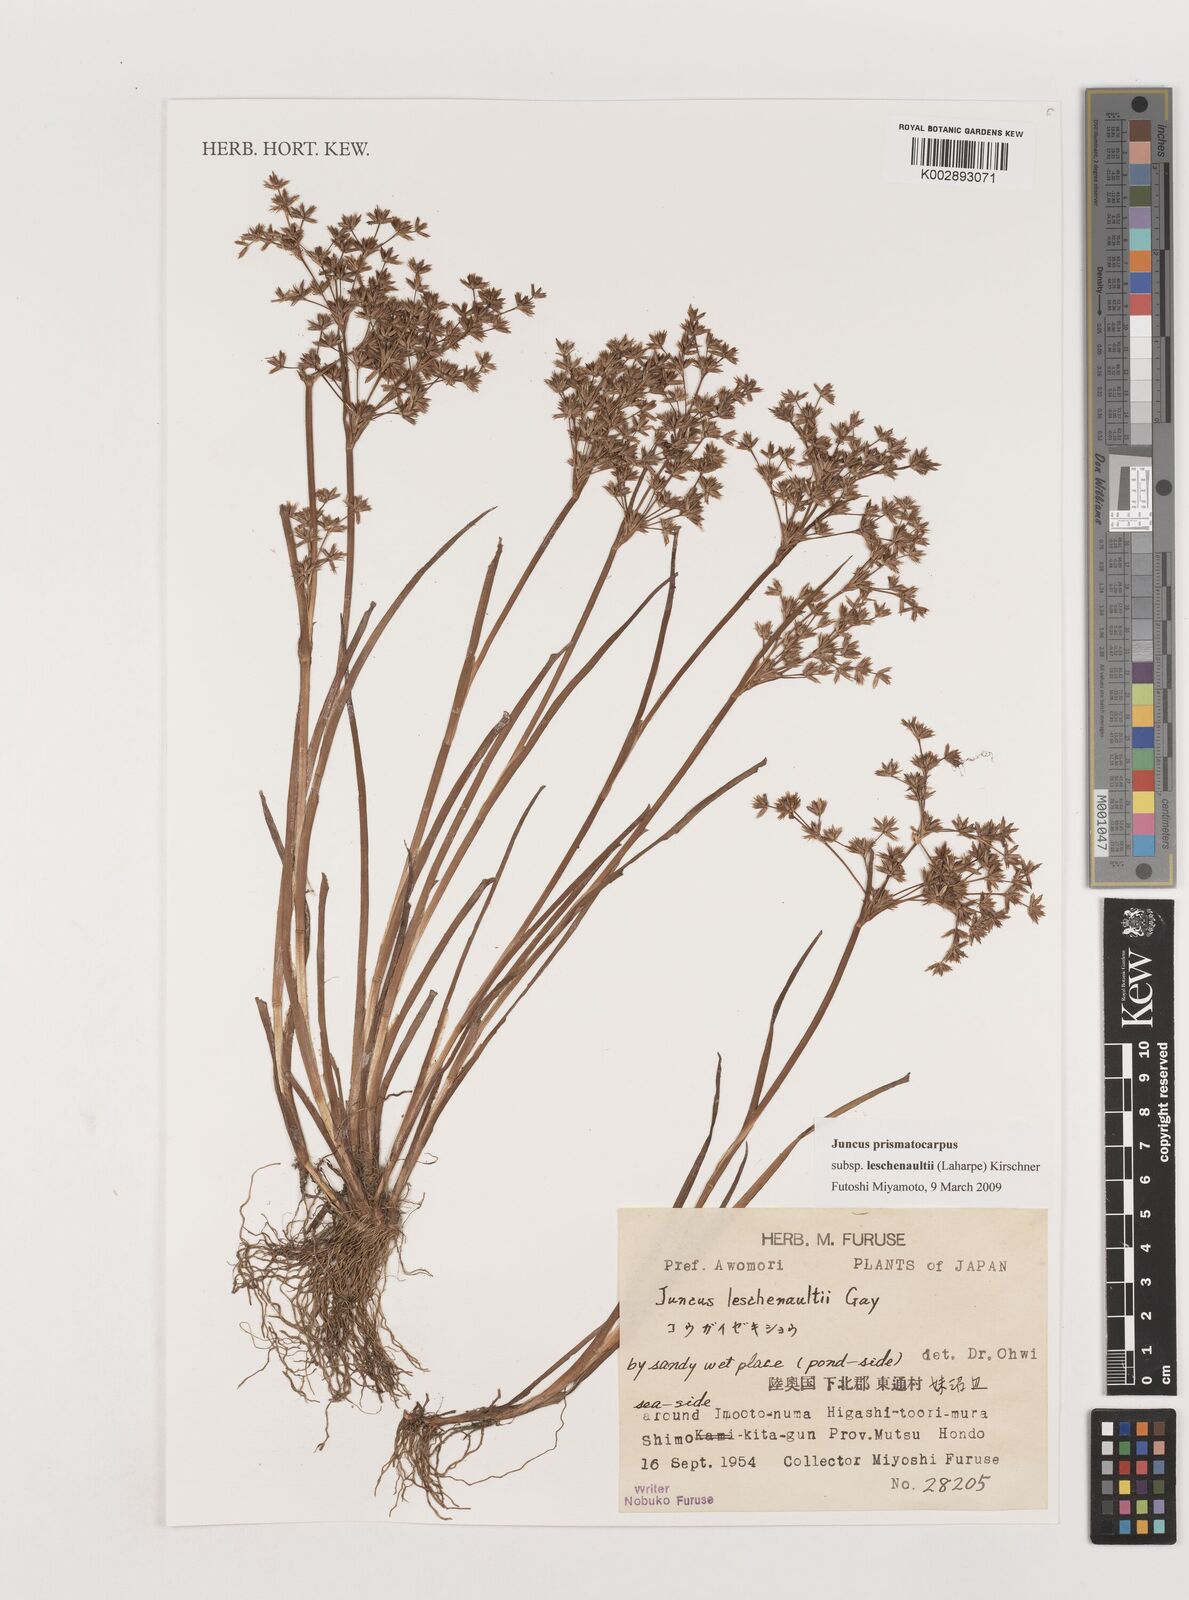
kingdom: Plantae
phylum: Tracheophyta
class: Liliopsida
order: Poales
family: Juncaceae
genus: Juncus
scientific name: Juncus prismatocarpus
